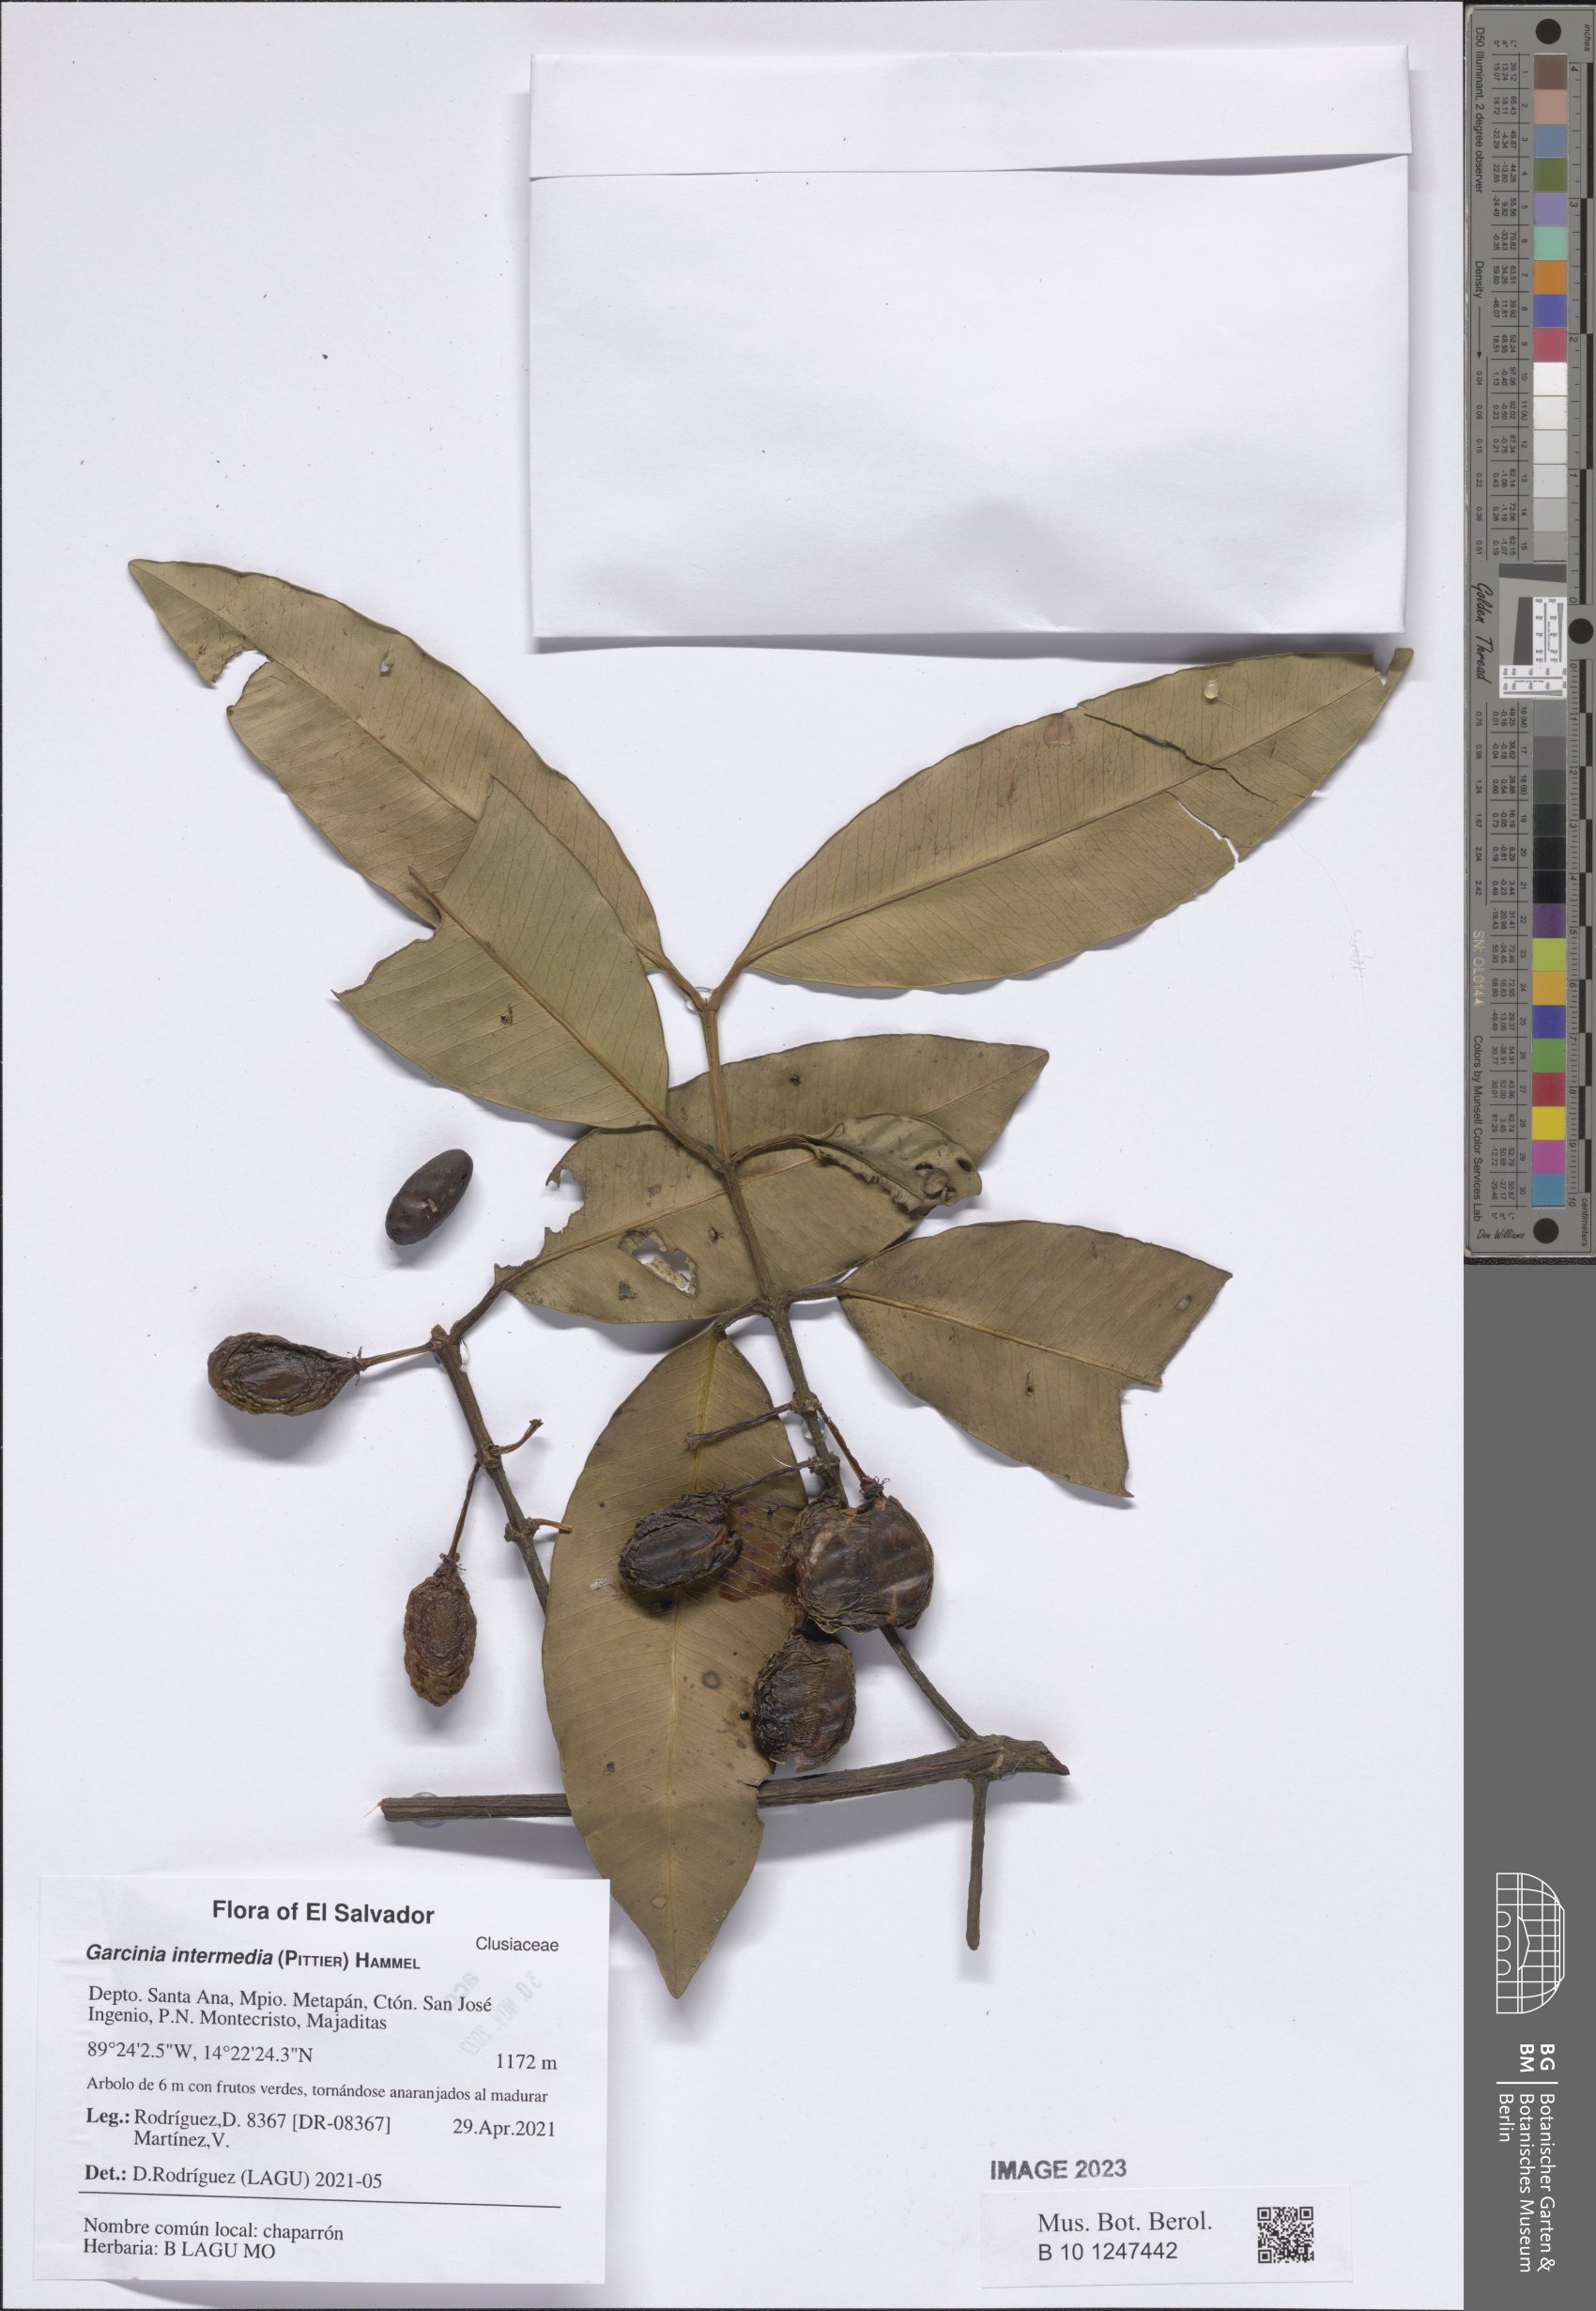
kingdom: Plantae
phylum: Tracheophyta
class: Magnoliopsida
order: Malpighiales
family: Clusiaceae
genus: Garcinia
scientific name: Garcinia intermedia
